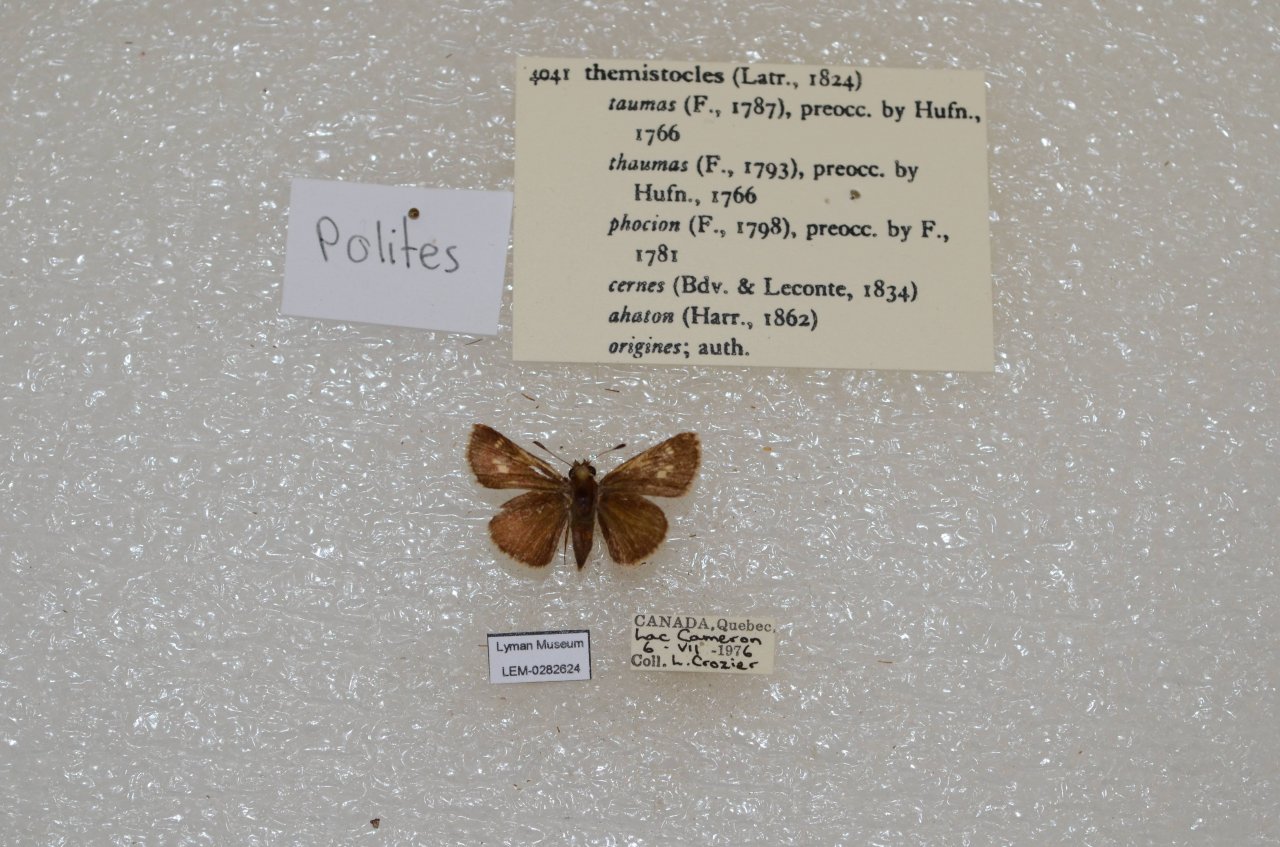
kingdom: Animalia
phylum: Arthropoda
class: Insecta
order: Lepidoptera
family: Hesperiidae
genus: Polites
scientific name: Polites themistocles
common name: Tawny-edged Skipper
